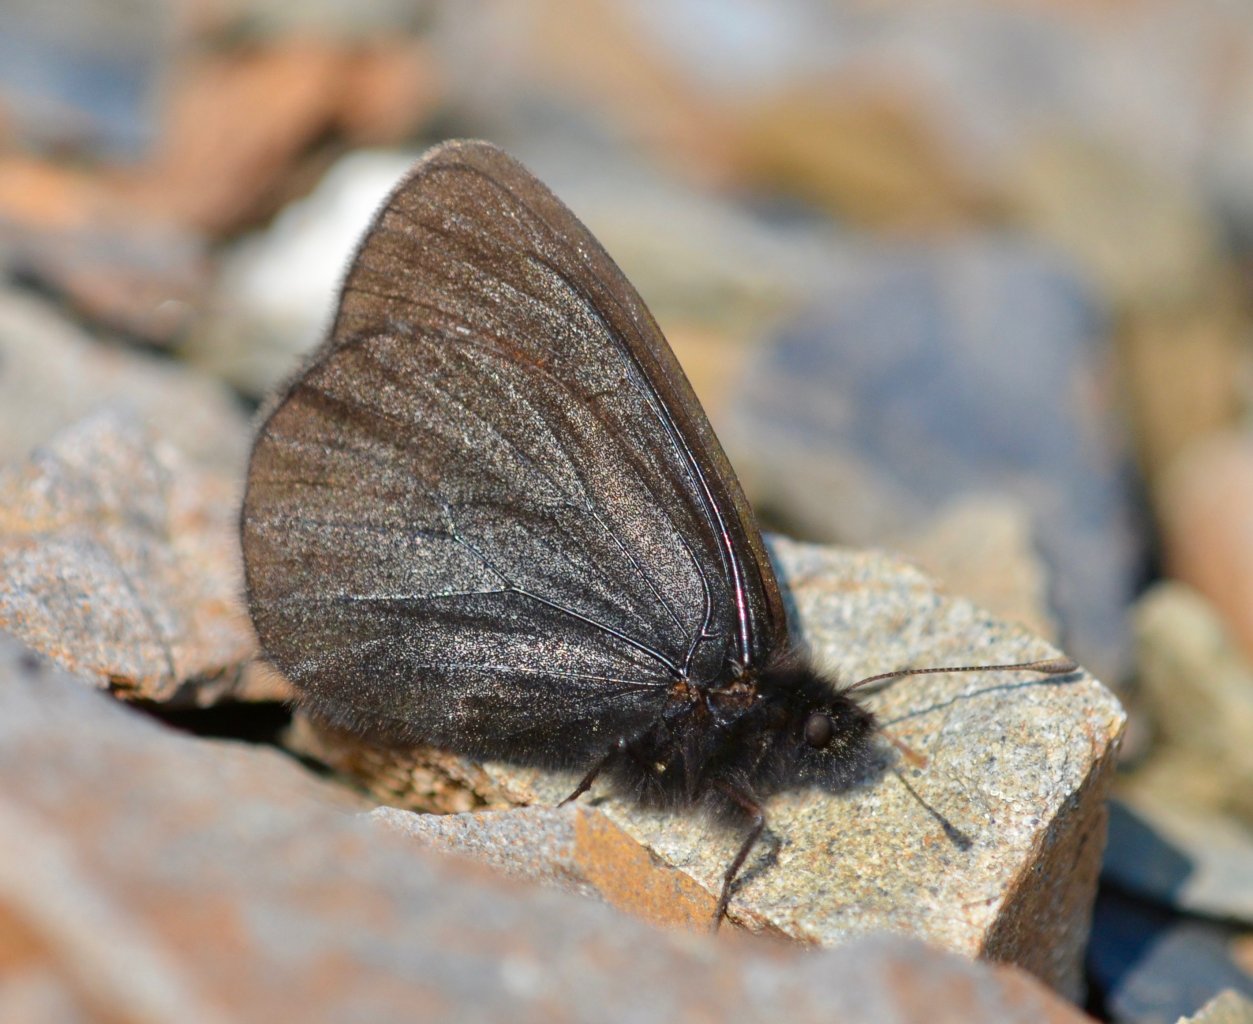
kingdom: Animalia
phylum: Arthropoda
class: Insecta
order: Lepidoptera
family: Nymphalidae
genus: Erebia
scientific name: Erebia mackinleyensis
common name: Mt. Mackinley Alpine
